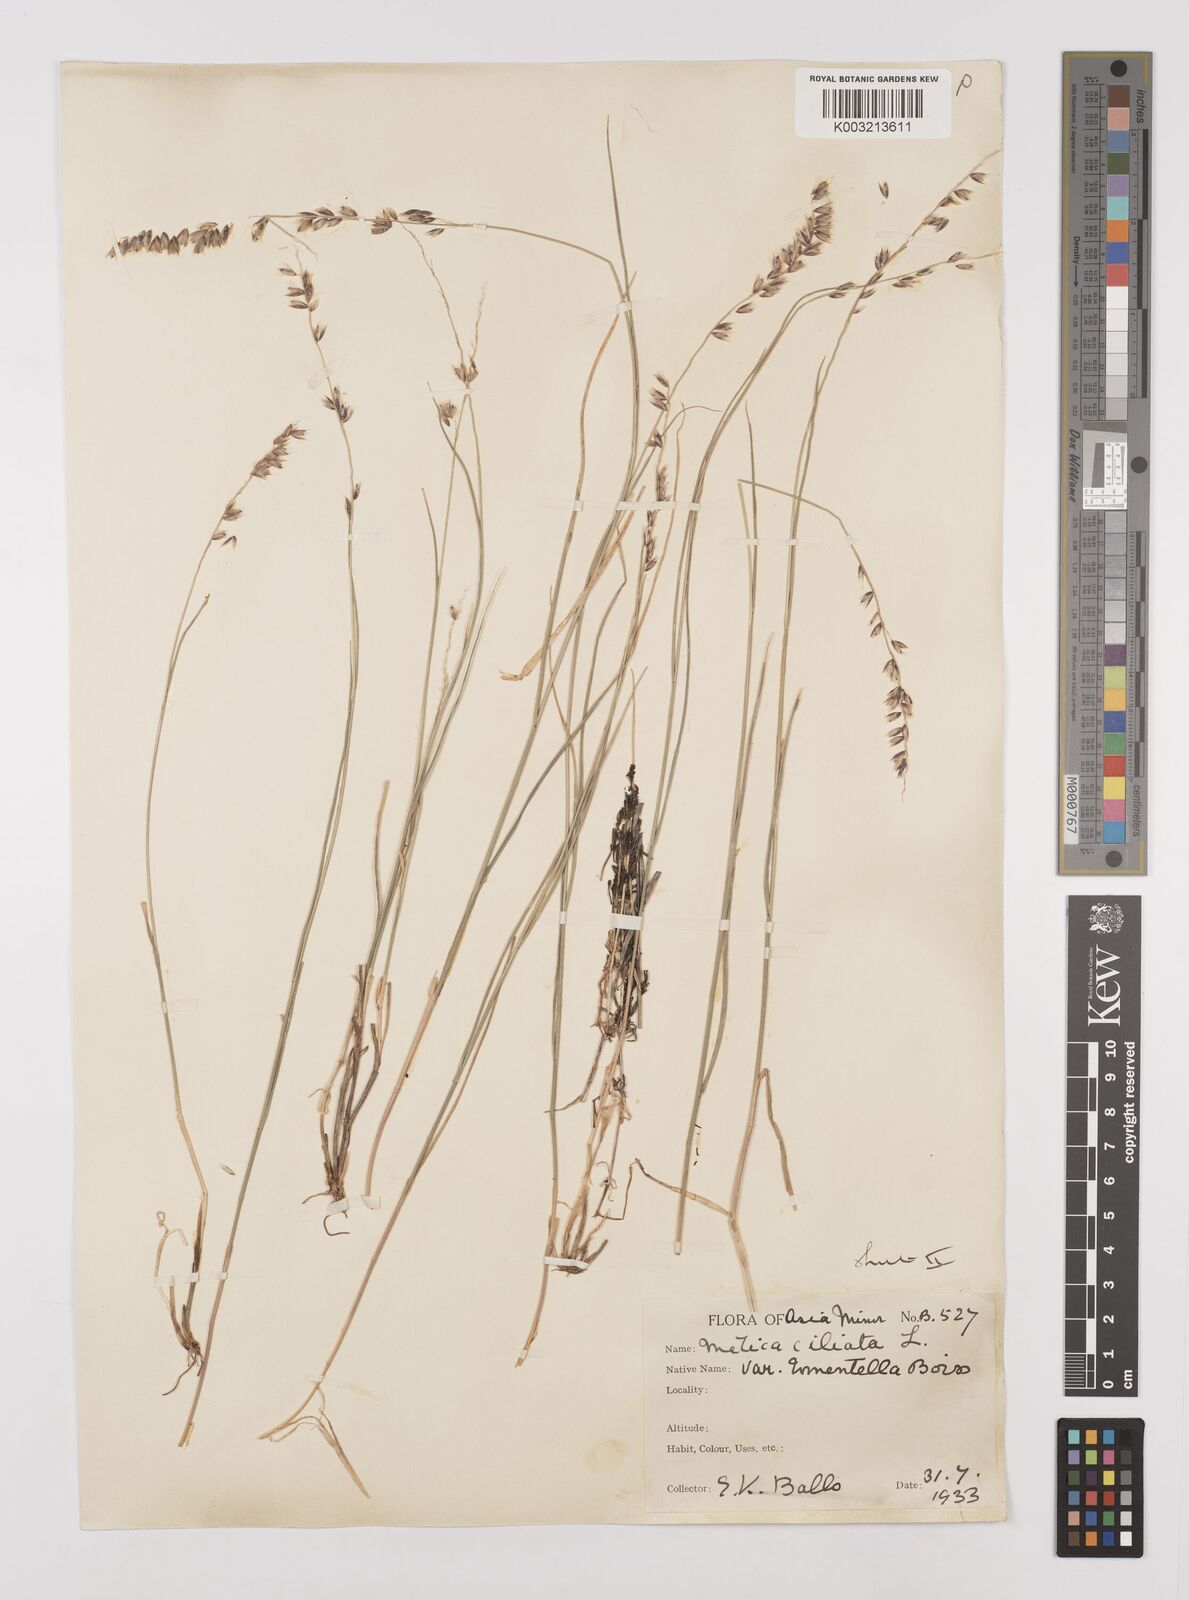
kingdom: Plantae
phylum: Tracheophyta
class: Liliopsida
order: Poales
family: Poaceae
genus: Melica
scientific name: Melica ciliata
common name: Hairy melicgrass
